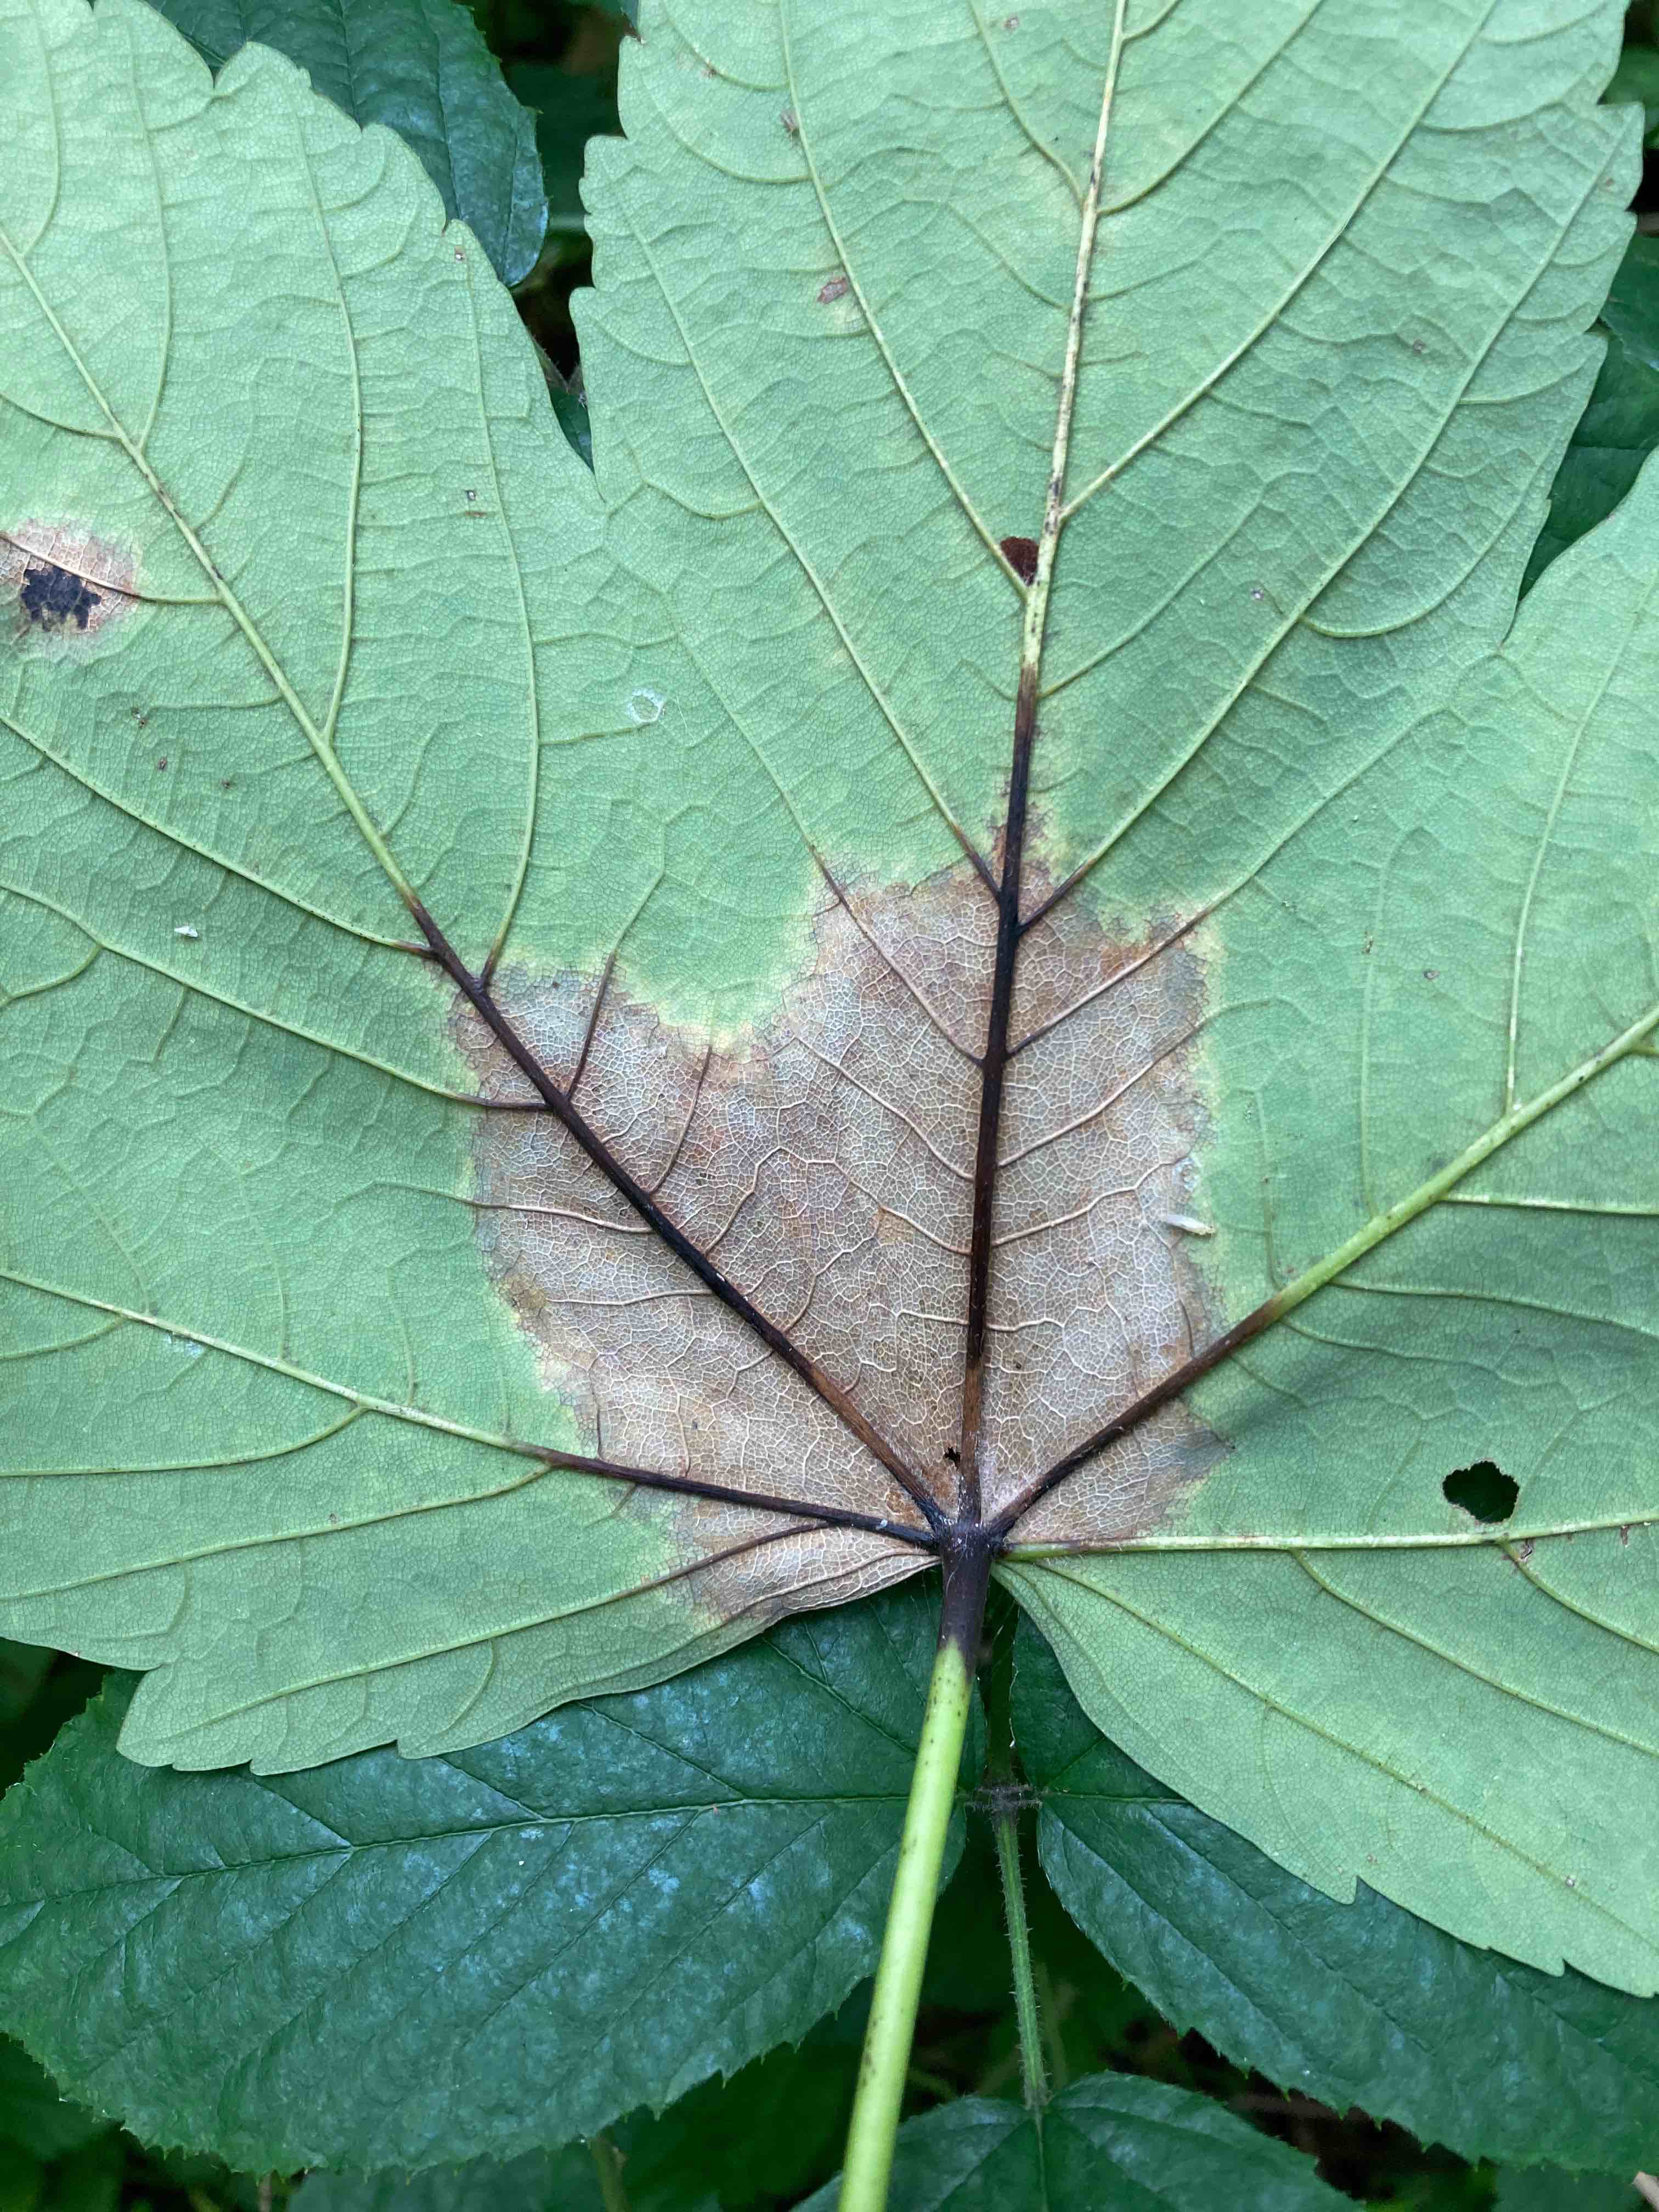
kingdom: Fungi
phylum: Ascomycota
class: Sordariomycetes
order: Diaporthales
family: Gnomoniaceae
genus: Pleuroceras
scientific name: Pleuroceras pseudoplatani
